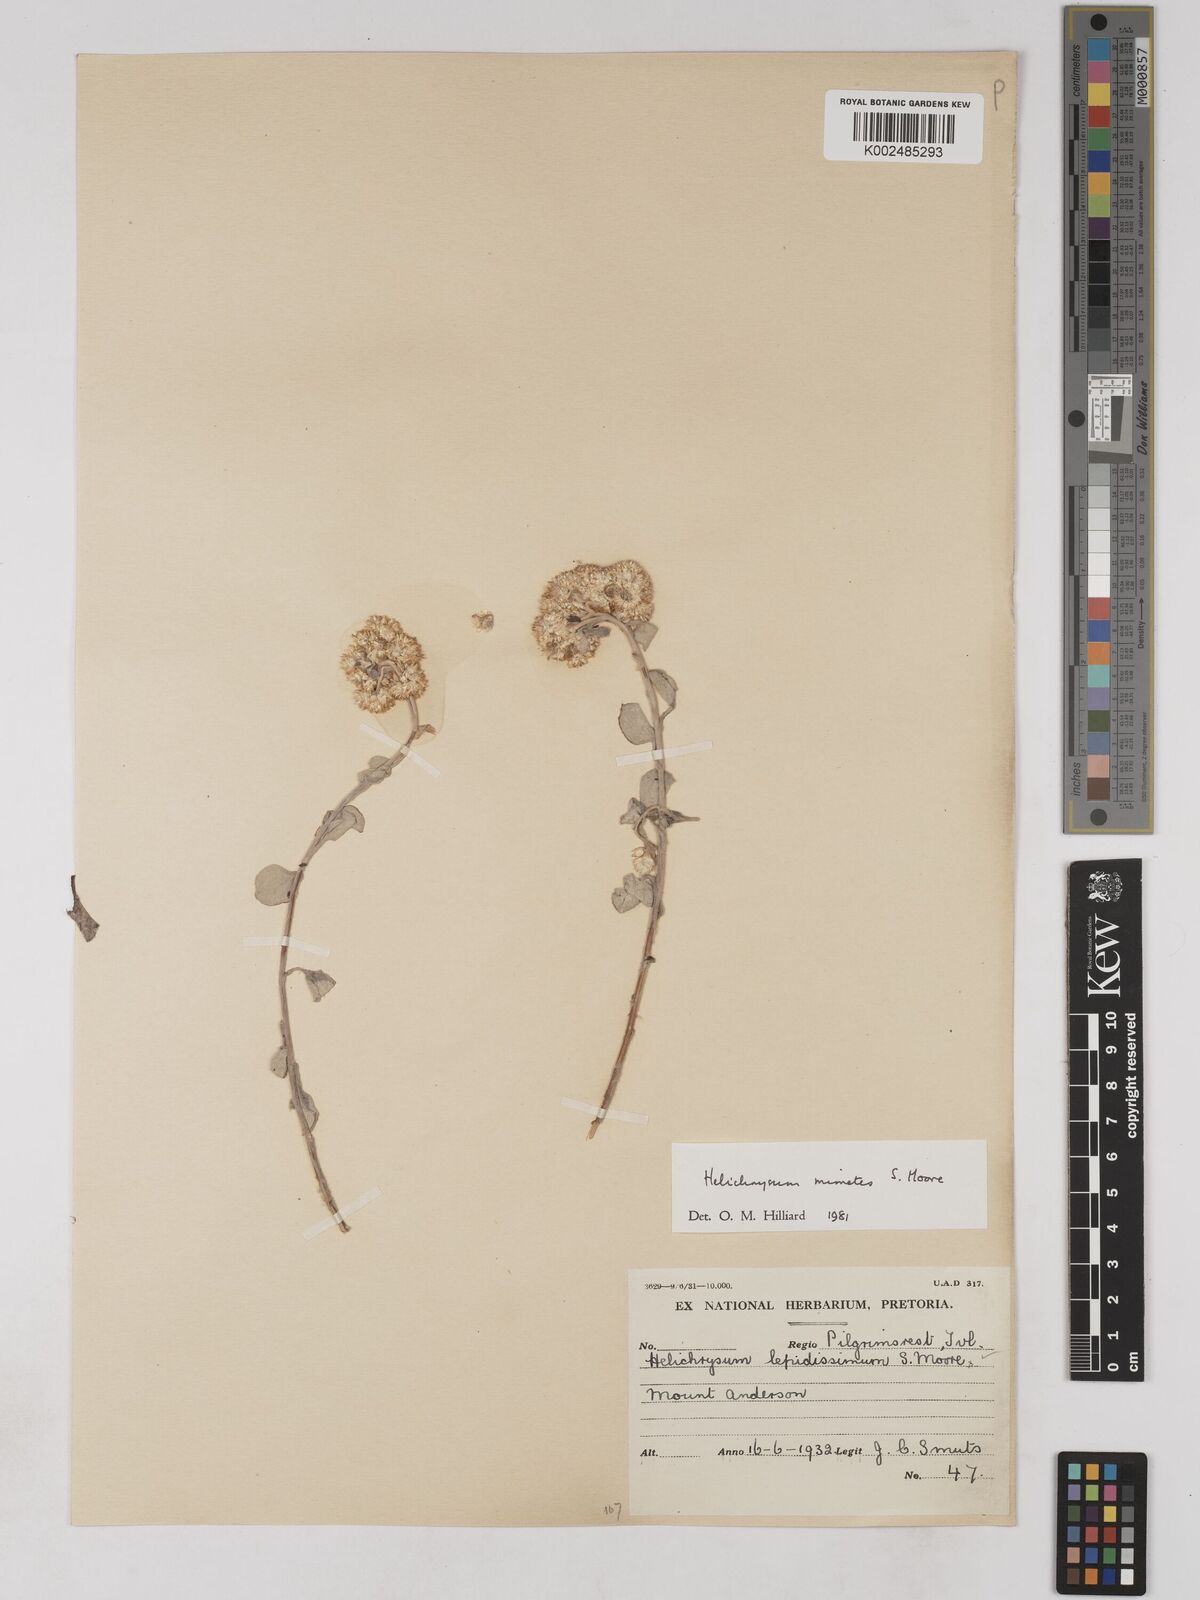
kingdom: Plantae
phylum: Tracheophyta
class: Magnoliopsida
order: Asterales
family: Asteraceae
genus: Helichrysum
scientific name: Helichrysum mimetes
